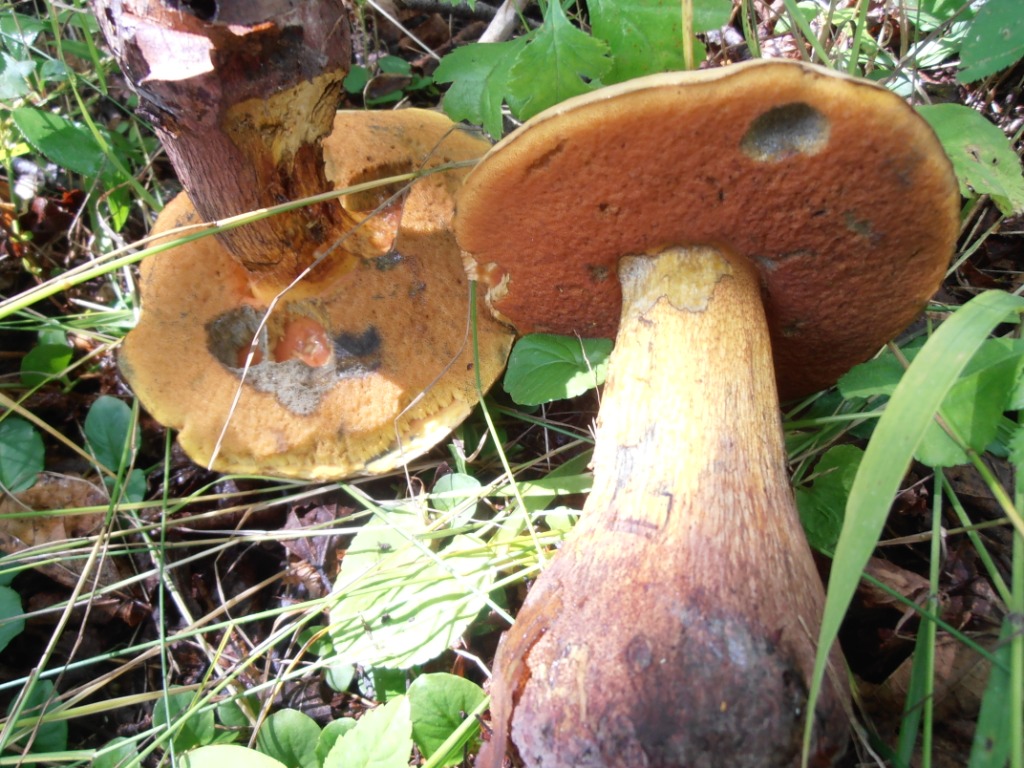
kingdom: Fungi
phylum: Basidiomycota
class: Agaricomycetes
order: Boletales
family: Boletaceae
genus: Suillellus
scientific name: Suillellus luridus
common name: netstokket indigorørhat
